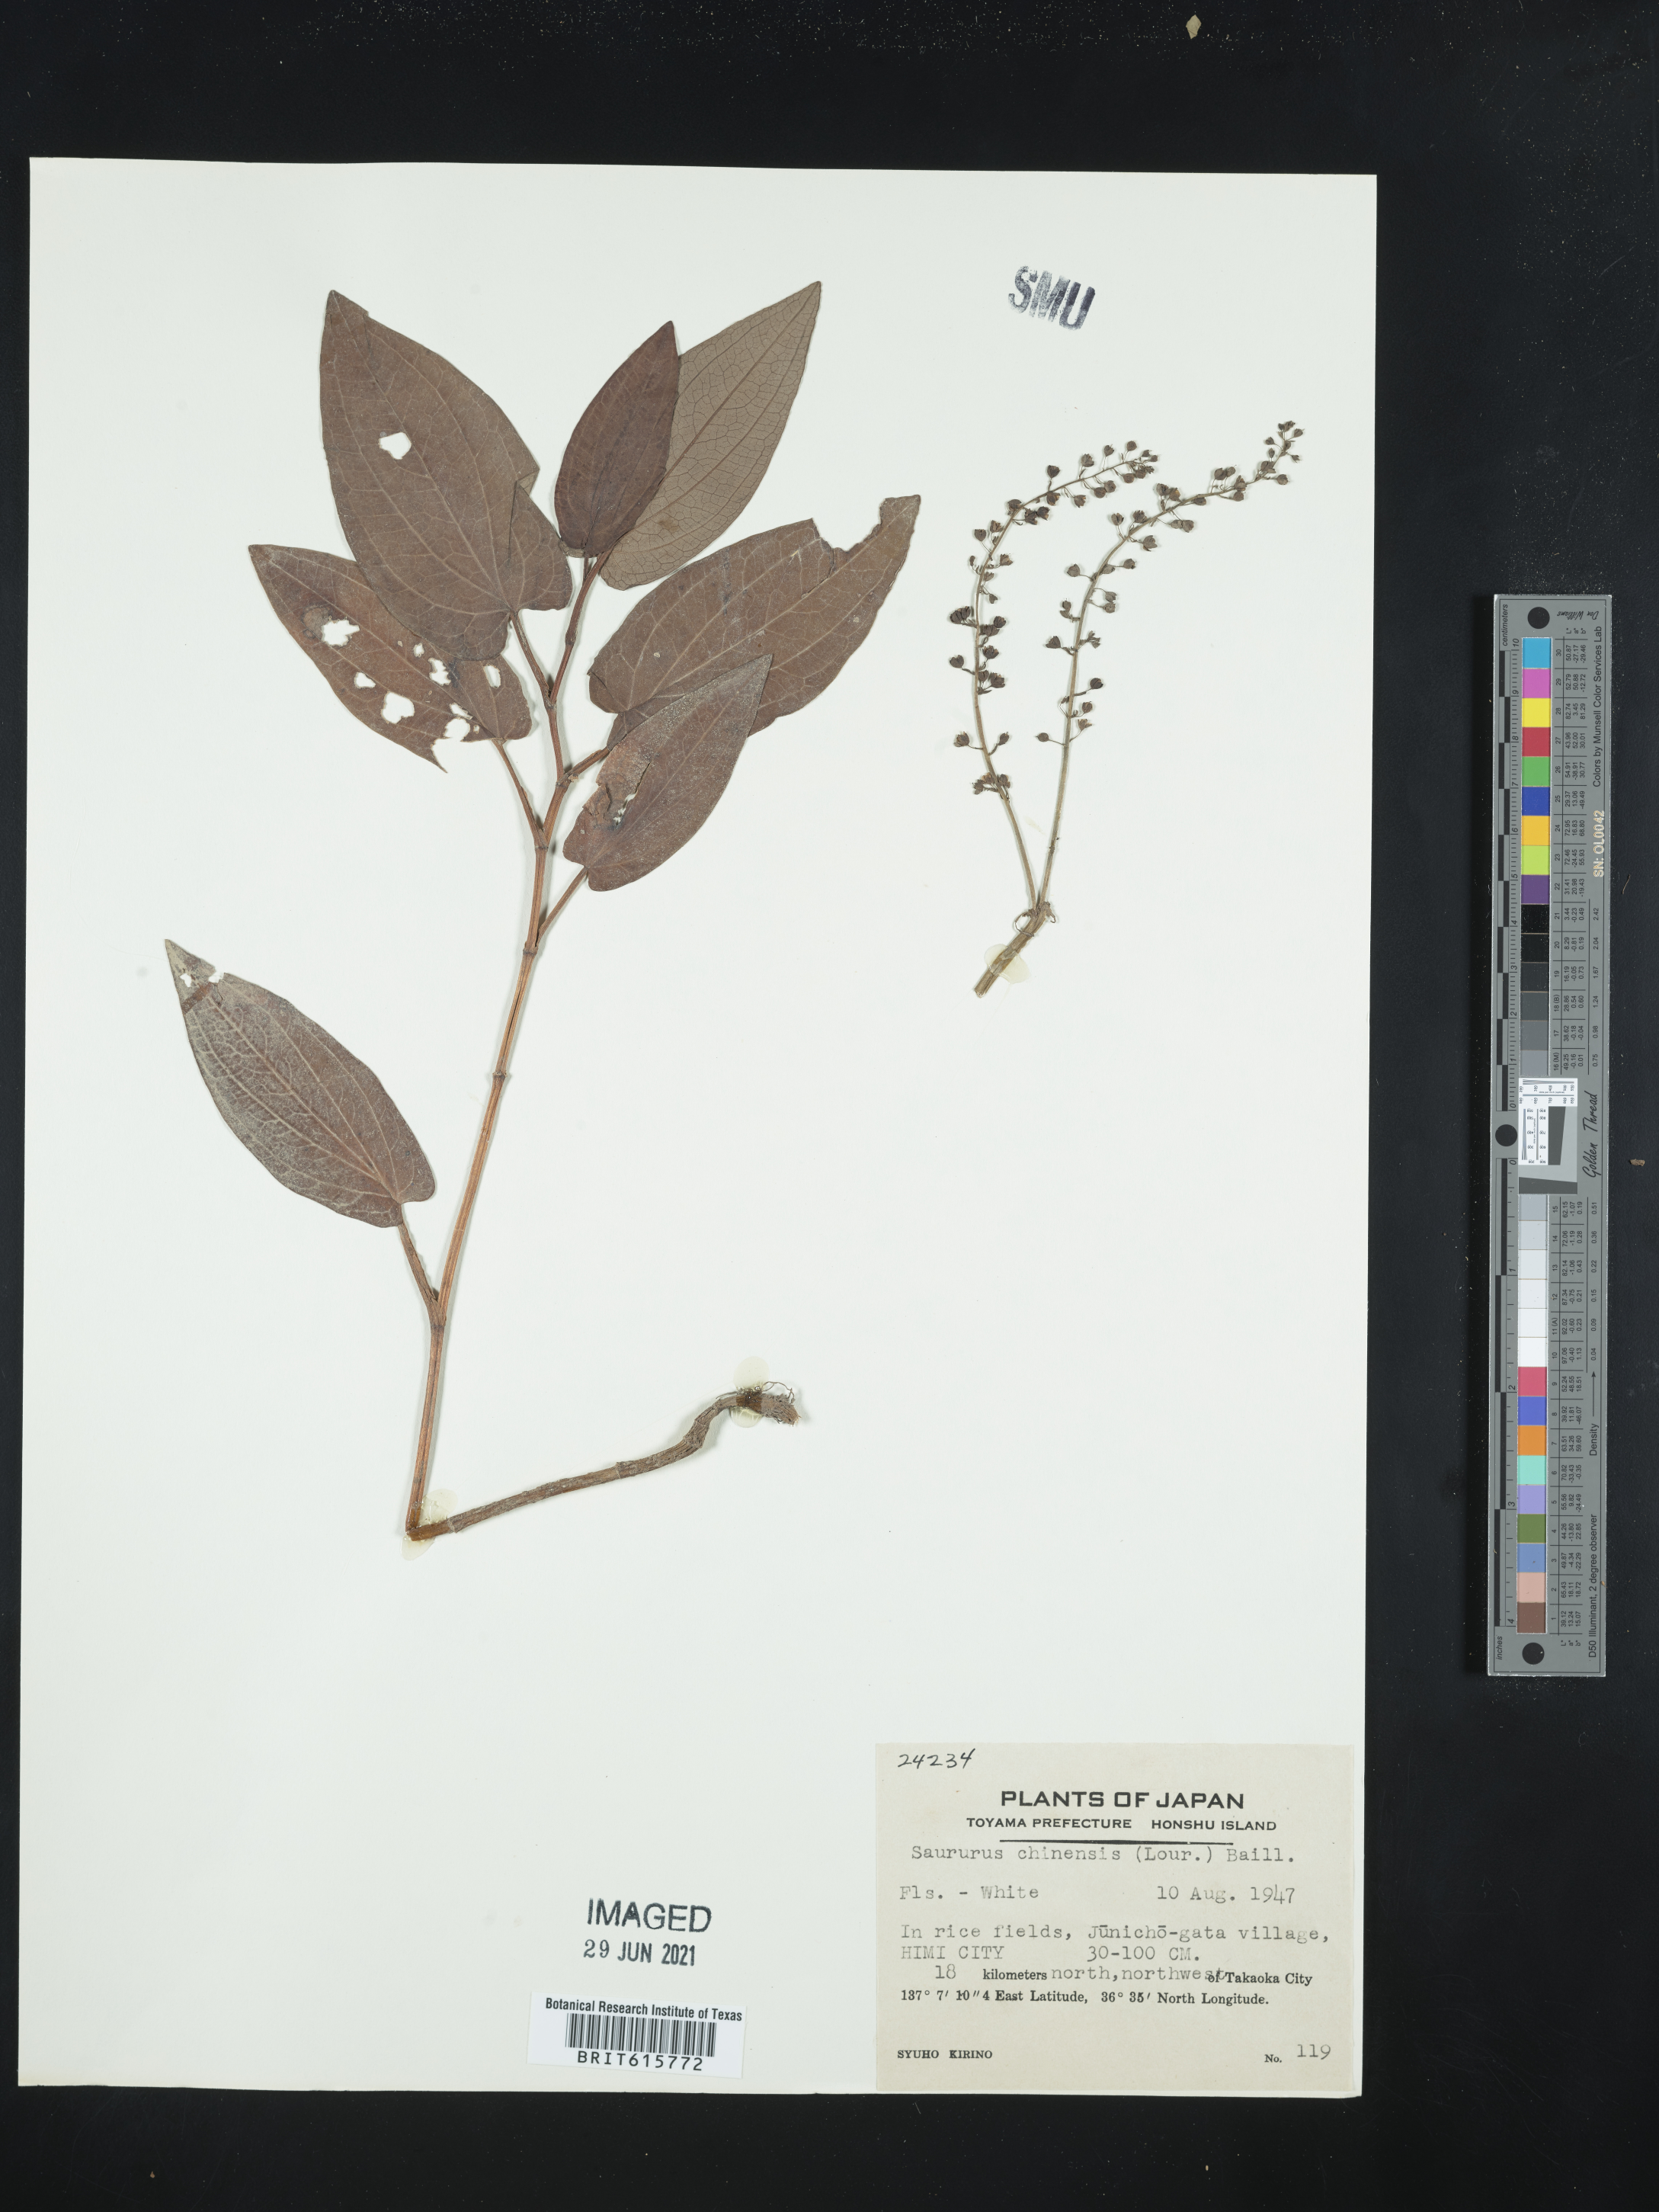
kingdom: Plantae
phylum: Tracheophyta
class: Magnoliopsida
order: Piperales
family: Saururaceae
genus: Saururus
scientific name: Saururus chinensis
